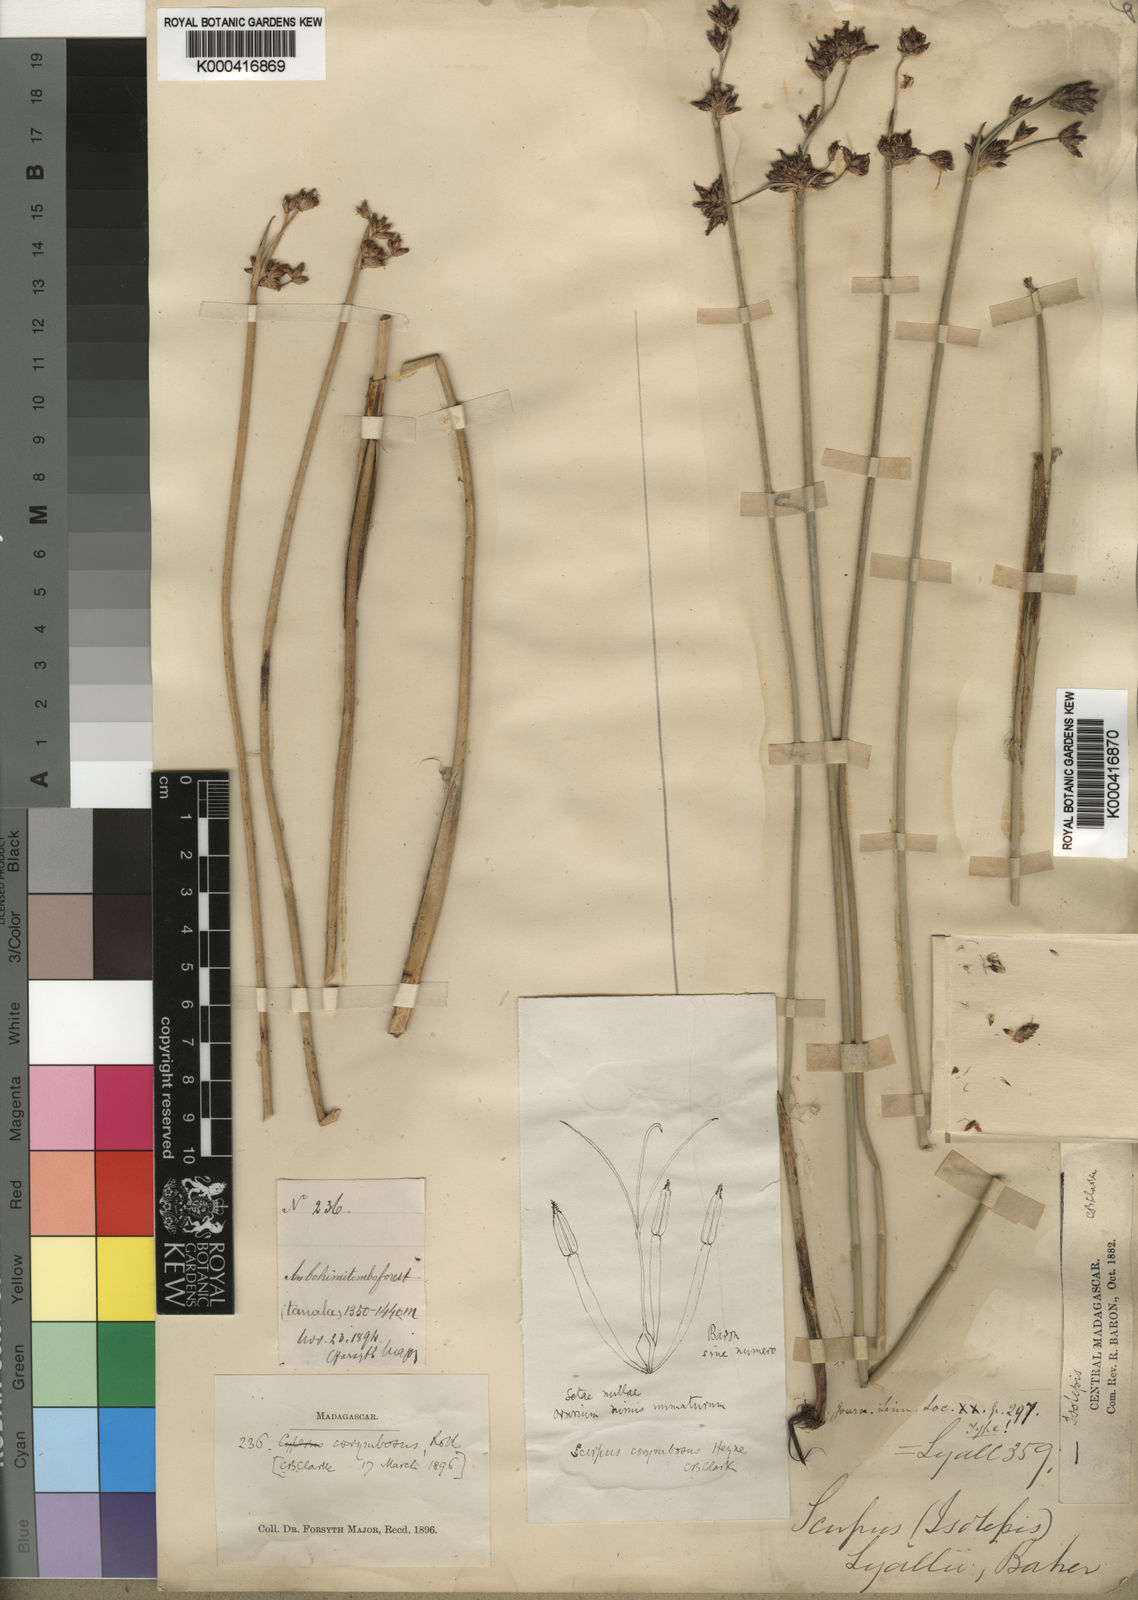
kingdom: Plantae
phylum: Tracheophyta
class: Liliopsida
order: Poales
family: Cyperaceae
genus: Schoenoplectiella
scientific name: Schoenoplectiella corymbosa
